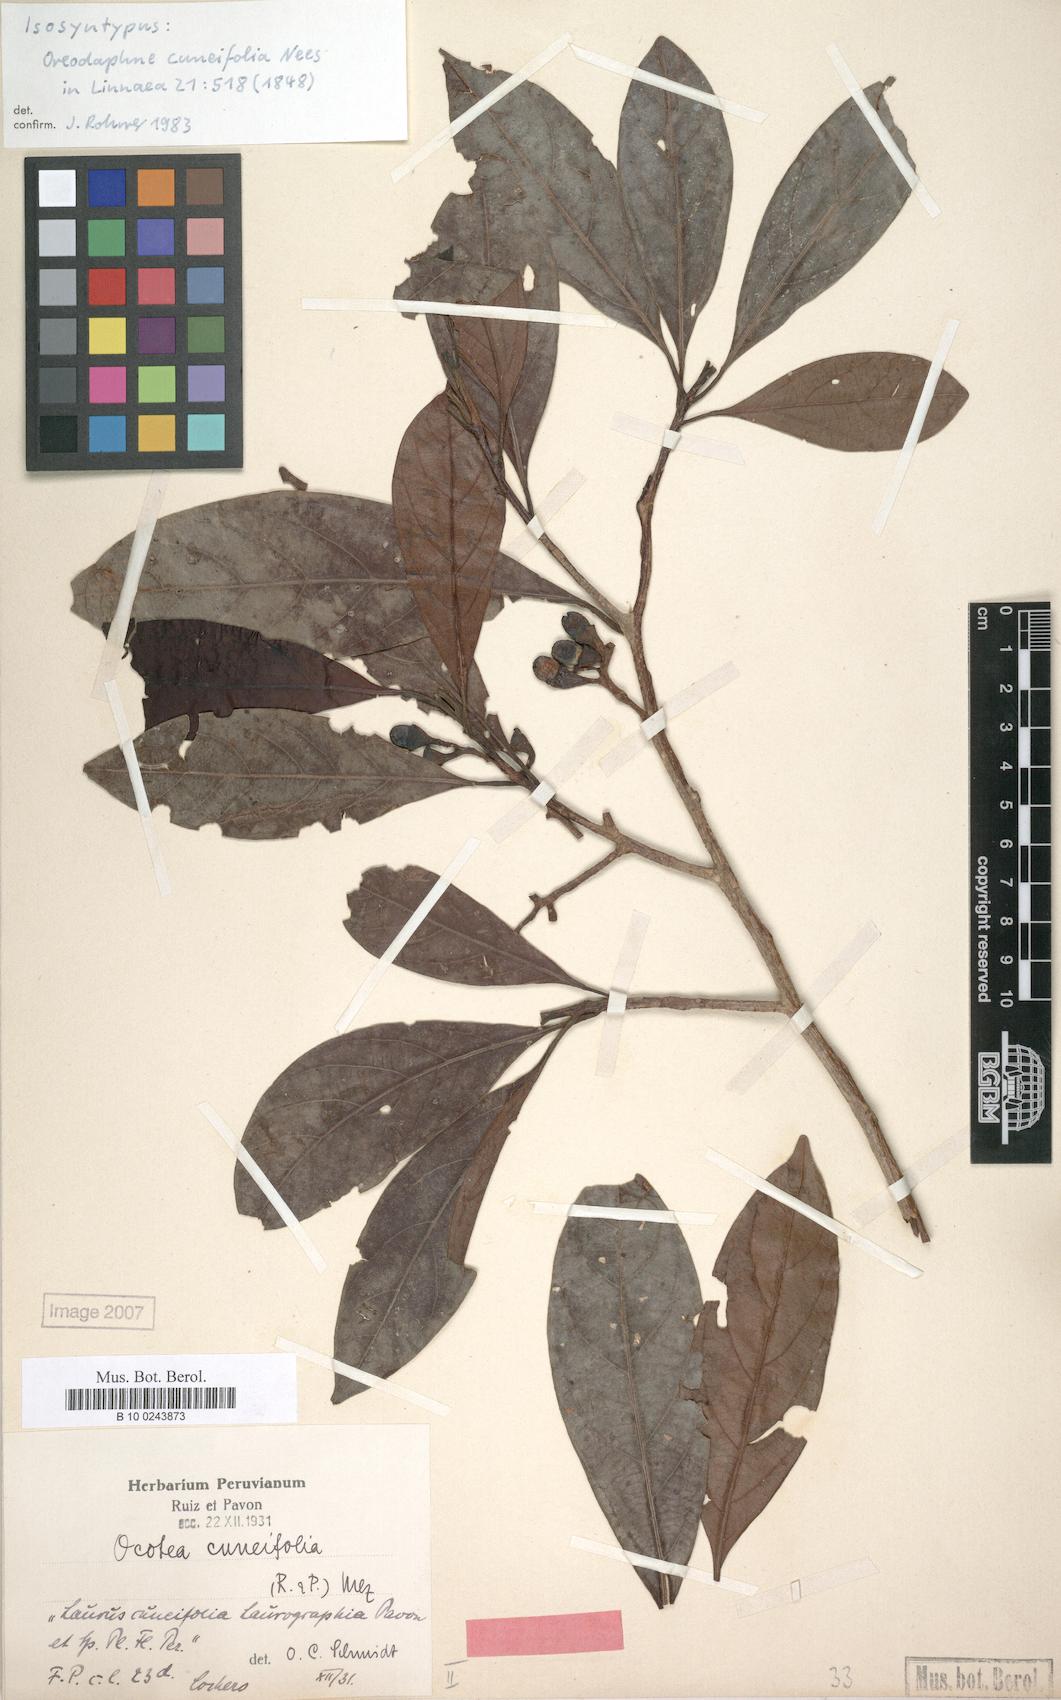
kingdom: Plantae
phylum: Tracheophyta
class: Magnoliopsida
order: Laurales
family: Lauraceae
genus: Ocotea
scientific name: Ocotea cuneifolia
